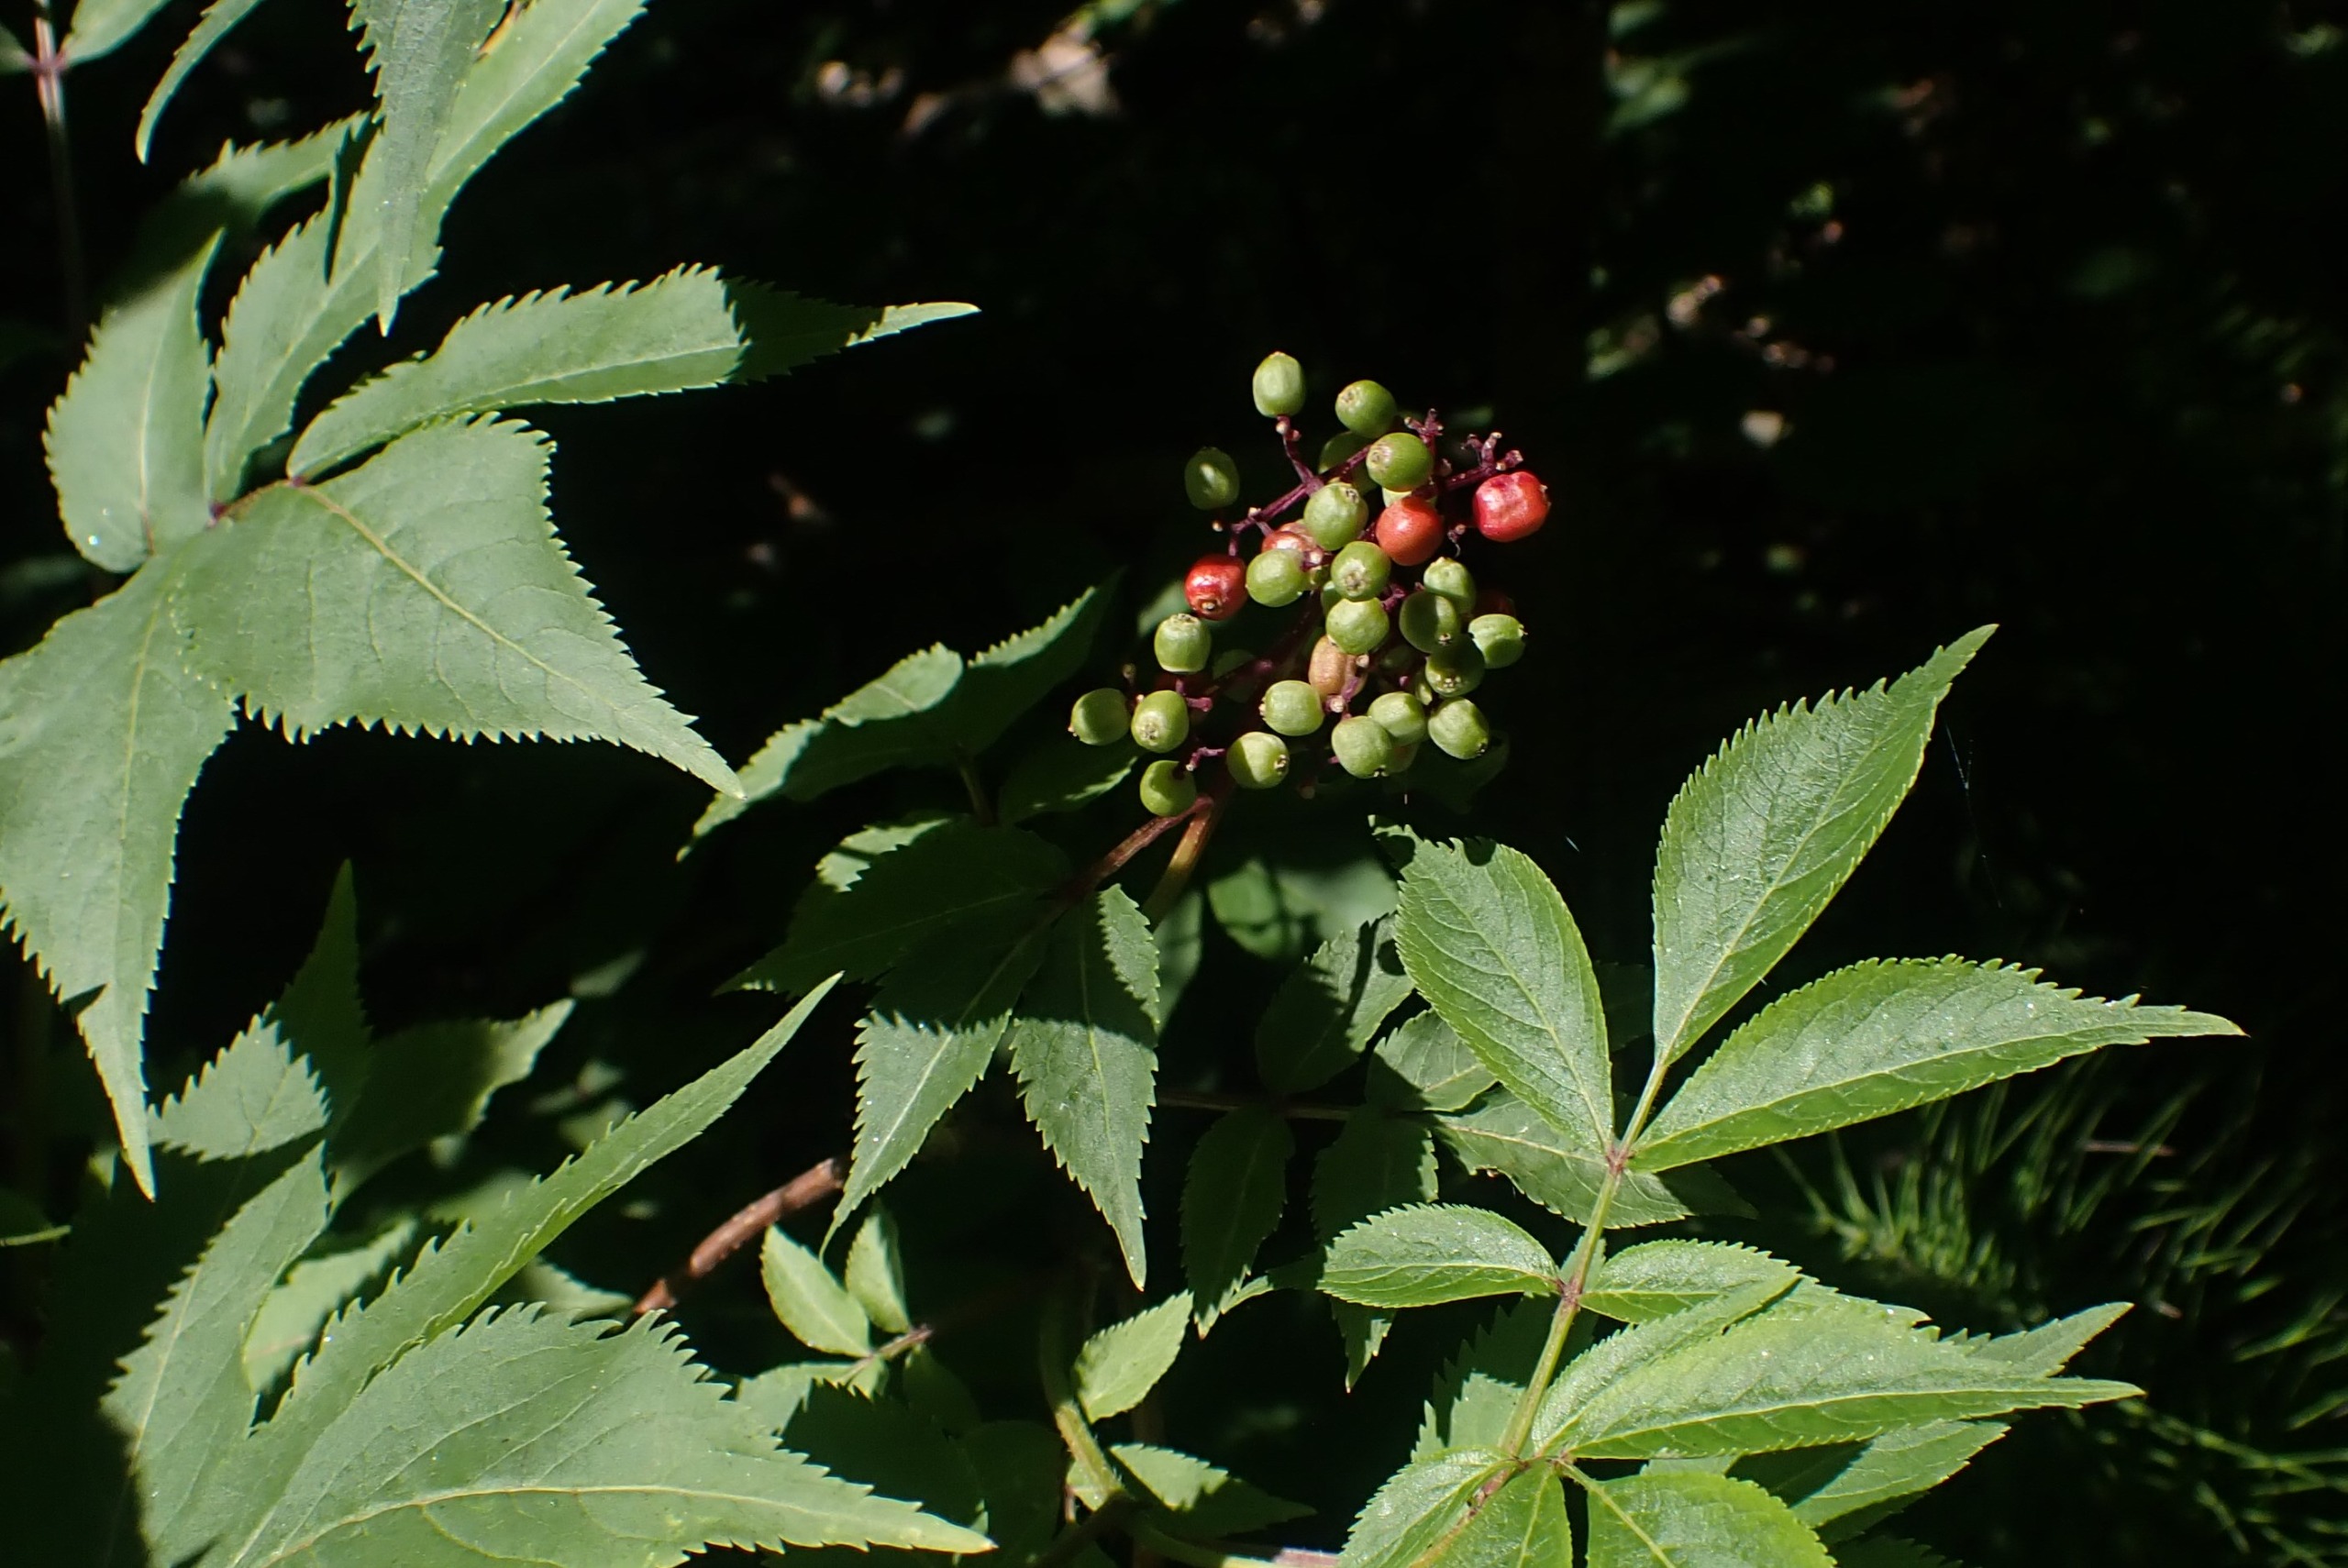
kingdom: Plantae
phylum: Tracheophyta
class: Magnoliopsida
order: Dipsacales
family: Viburnaceae
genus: Sambucus
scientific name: Sambucus racemosa
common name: Drue-hyld
